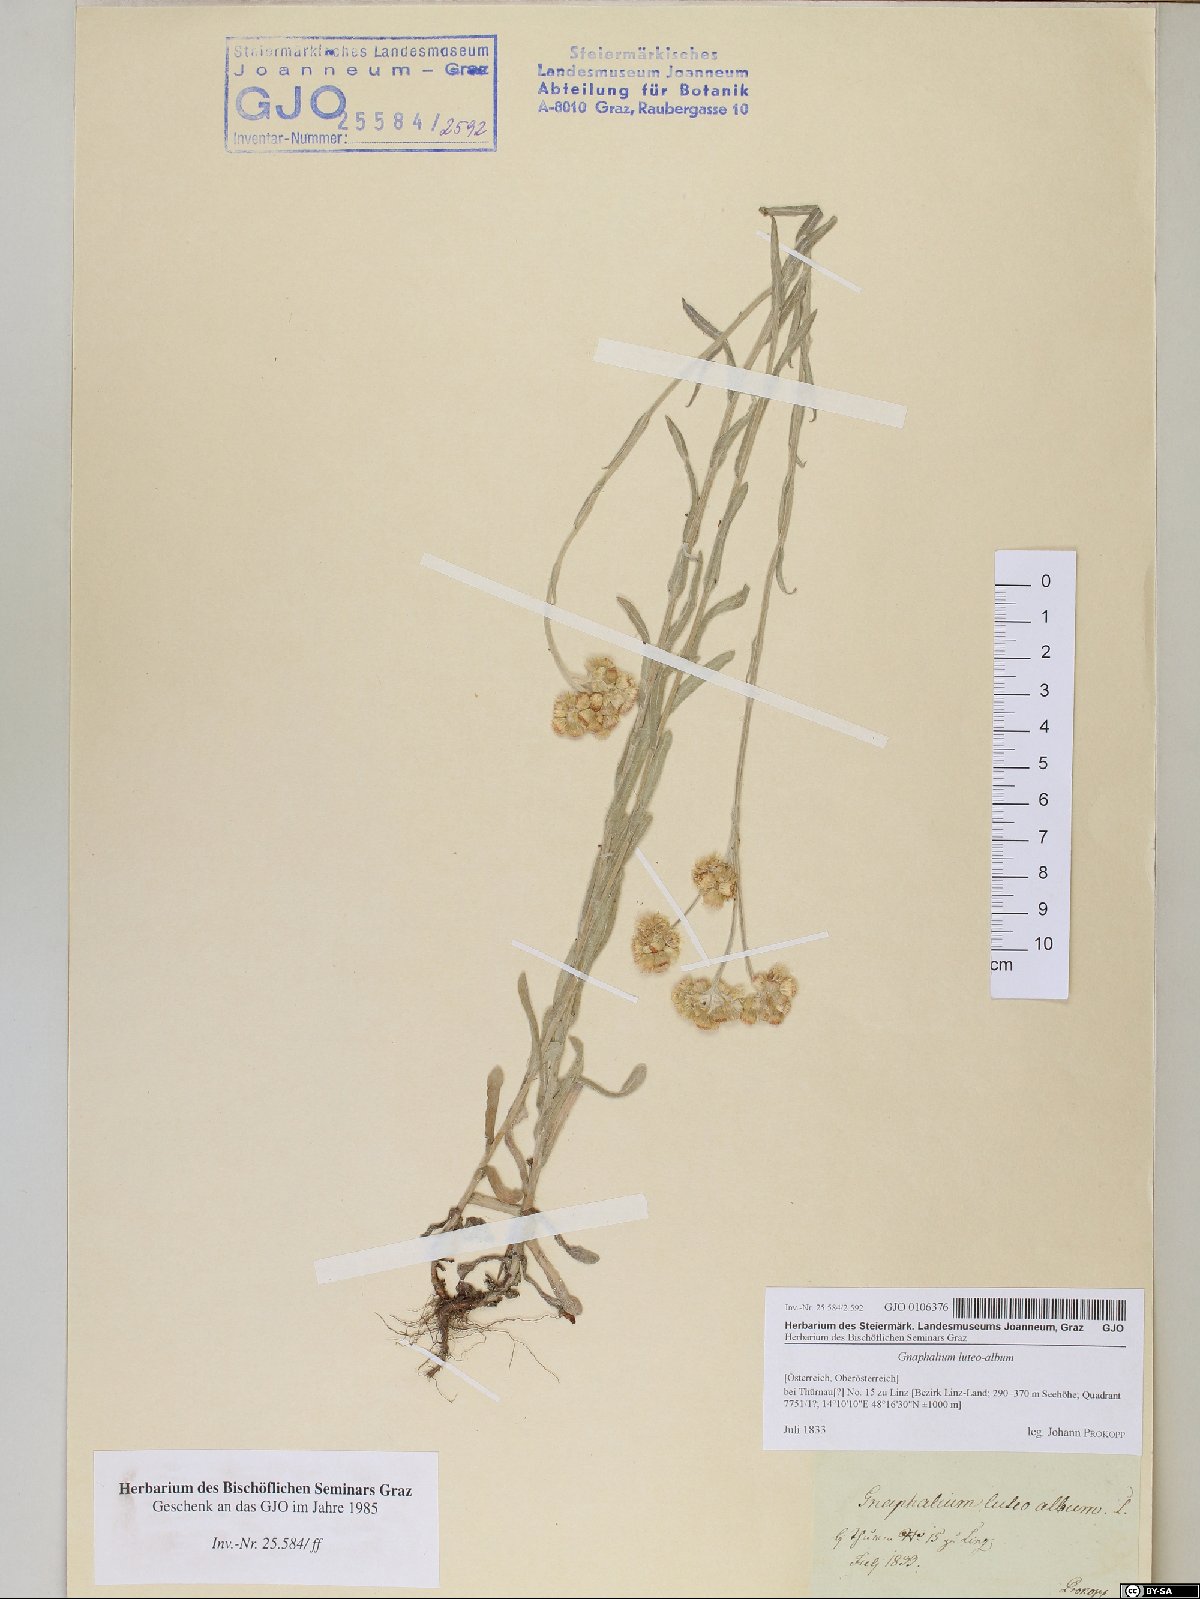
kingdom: Plantae
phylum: Tracheophyta
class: Magnoliopsida
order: Asterales
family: Asteraceae
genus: Helichrysum
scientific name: Helichrysum luteoalbum
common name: Daisy
